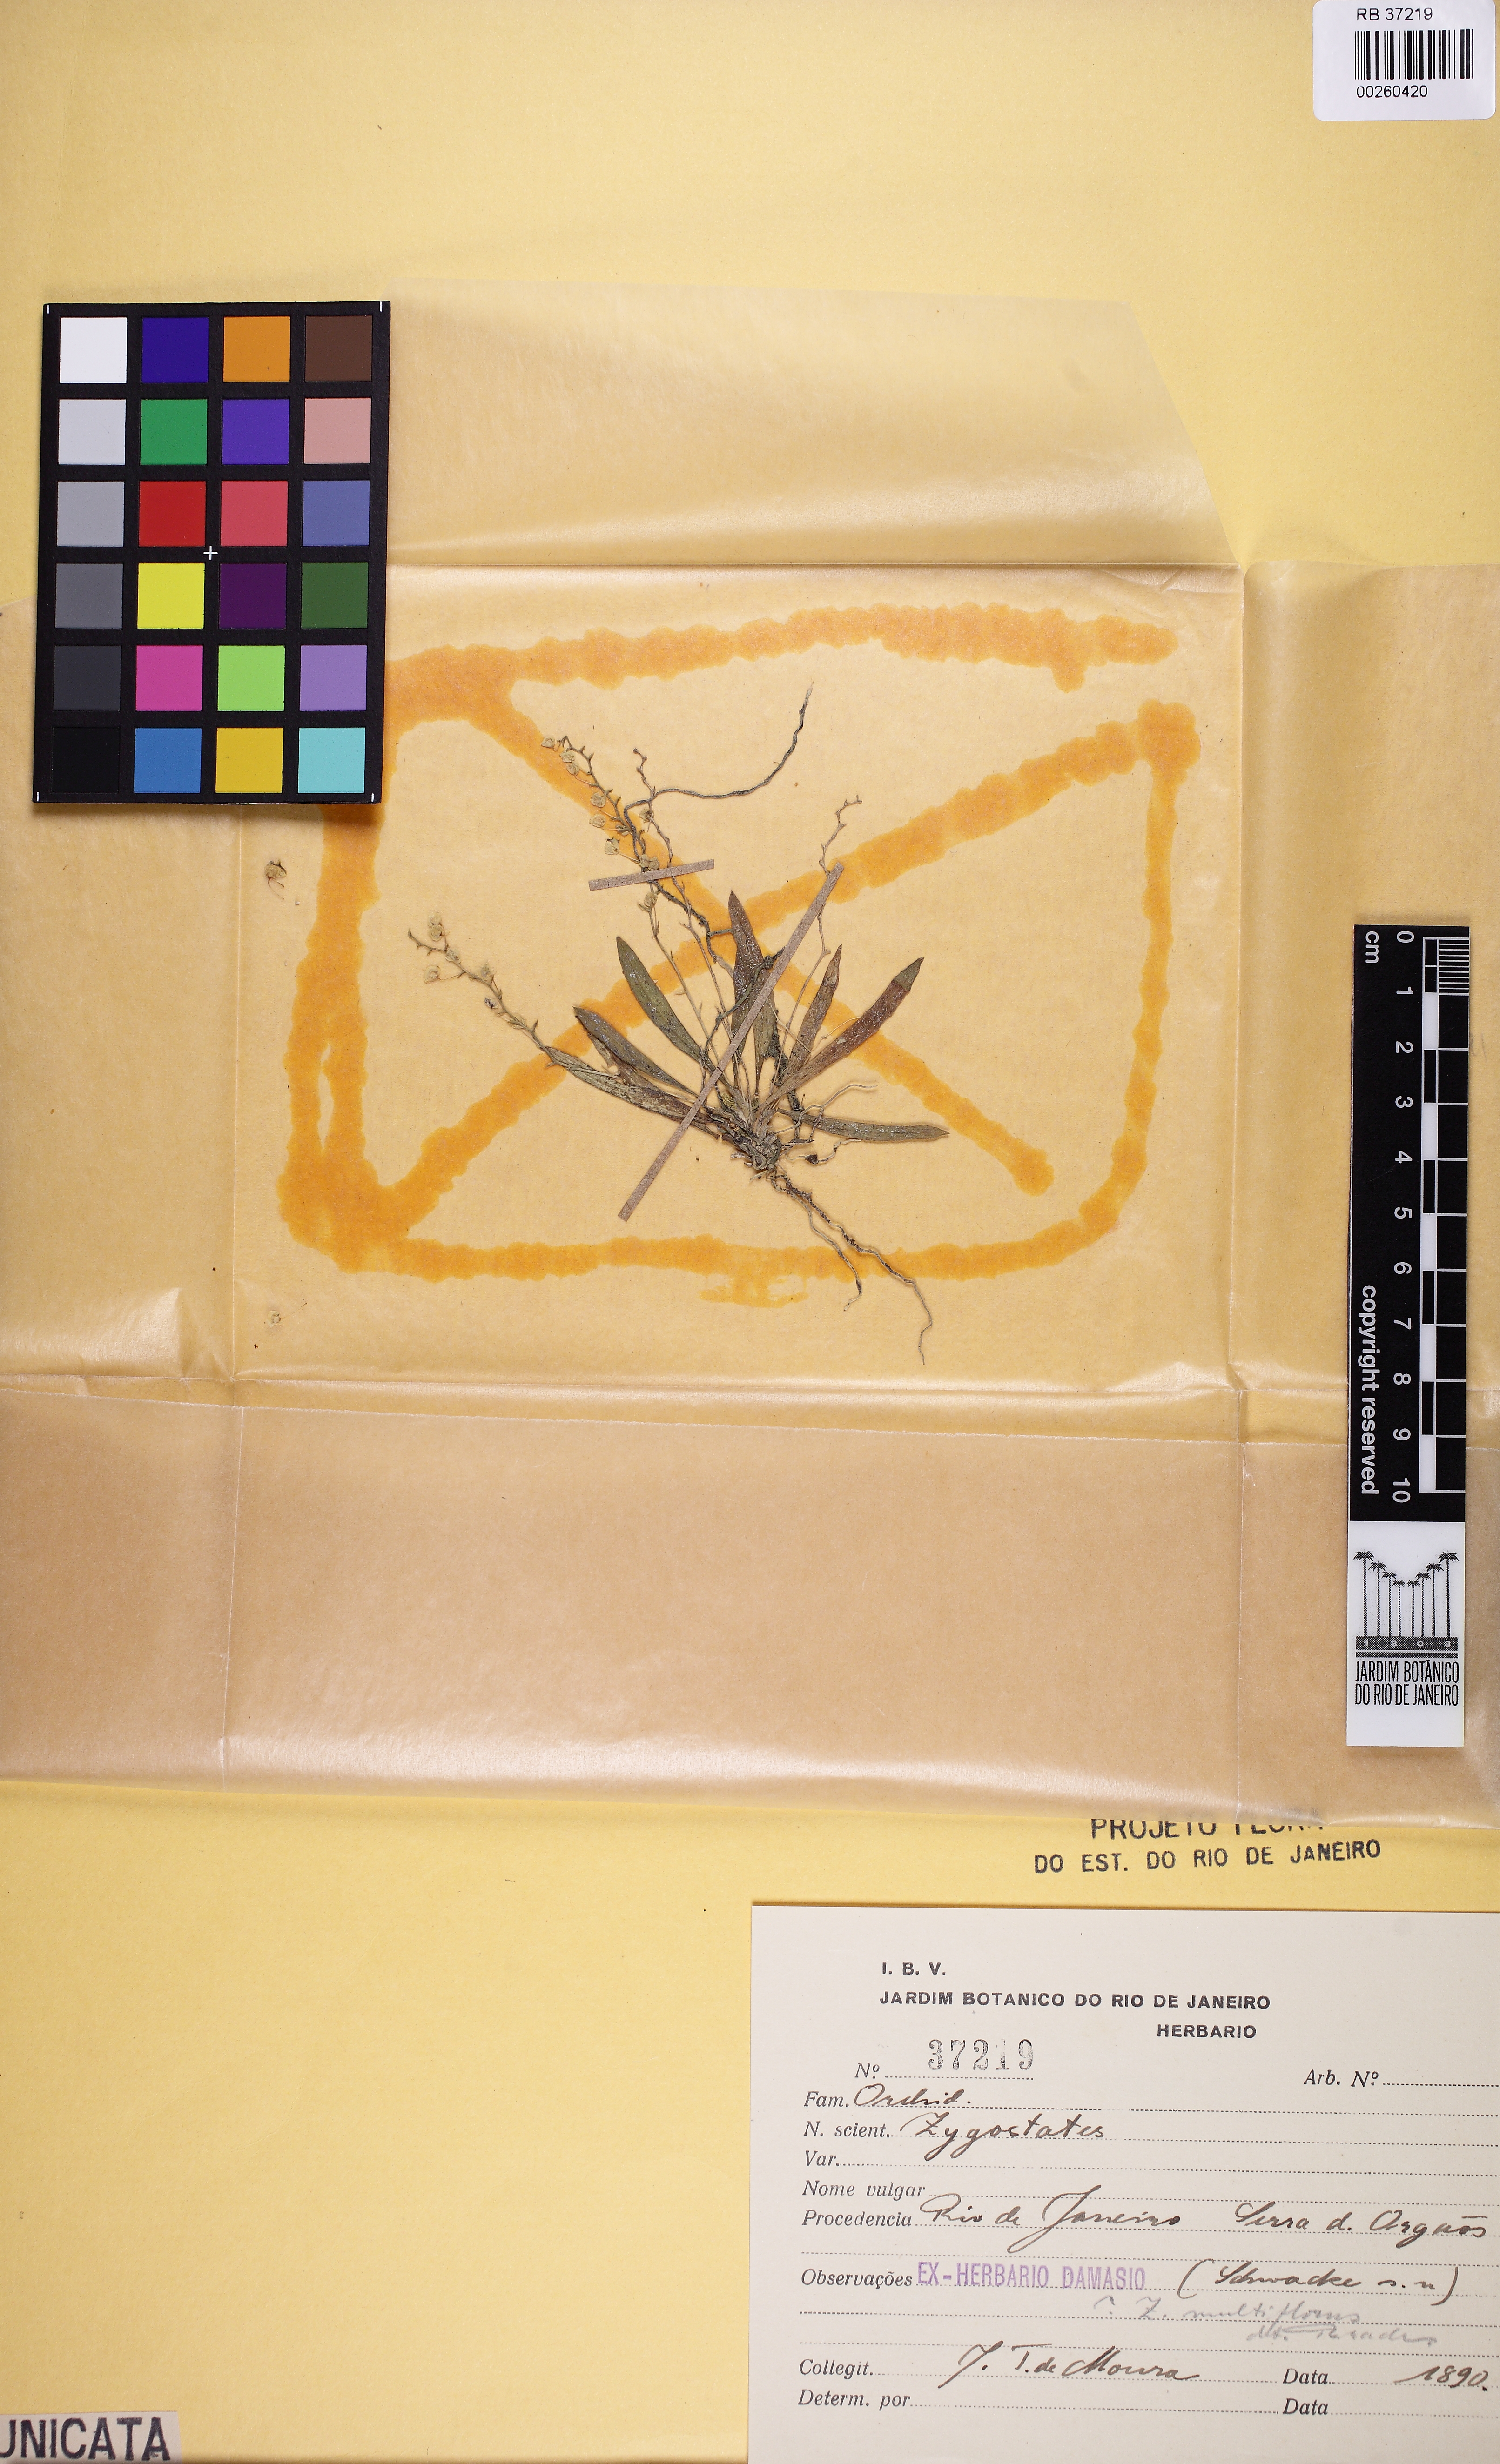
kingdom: Plantae
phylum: Tracheophyta
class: Liliopsida
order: Asparagales
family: Orchidaceae
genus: Zygostates
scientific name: Zygostates multiflora
